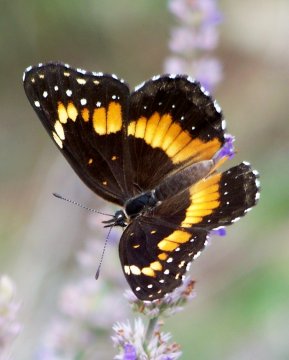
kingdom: Animalia
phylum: Arthropoda
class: Insecta
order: Lepidoptera
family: Nymphalidae
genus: Chlosyne
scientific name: Chlosyne lacinia
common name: Bordered Patch
